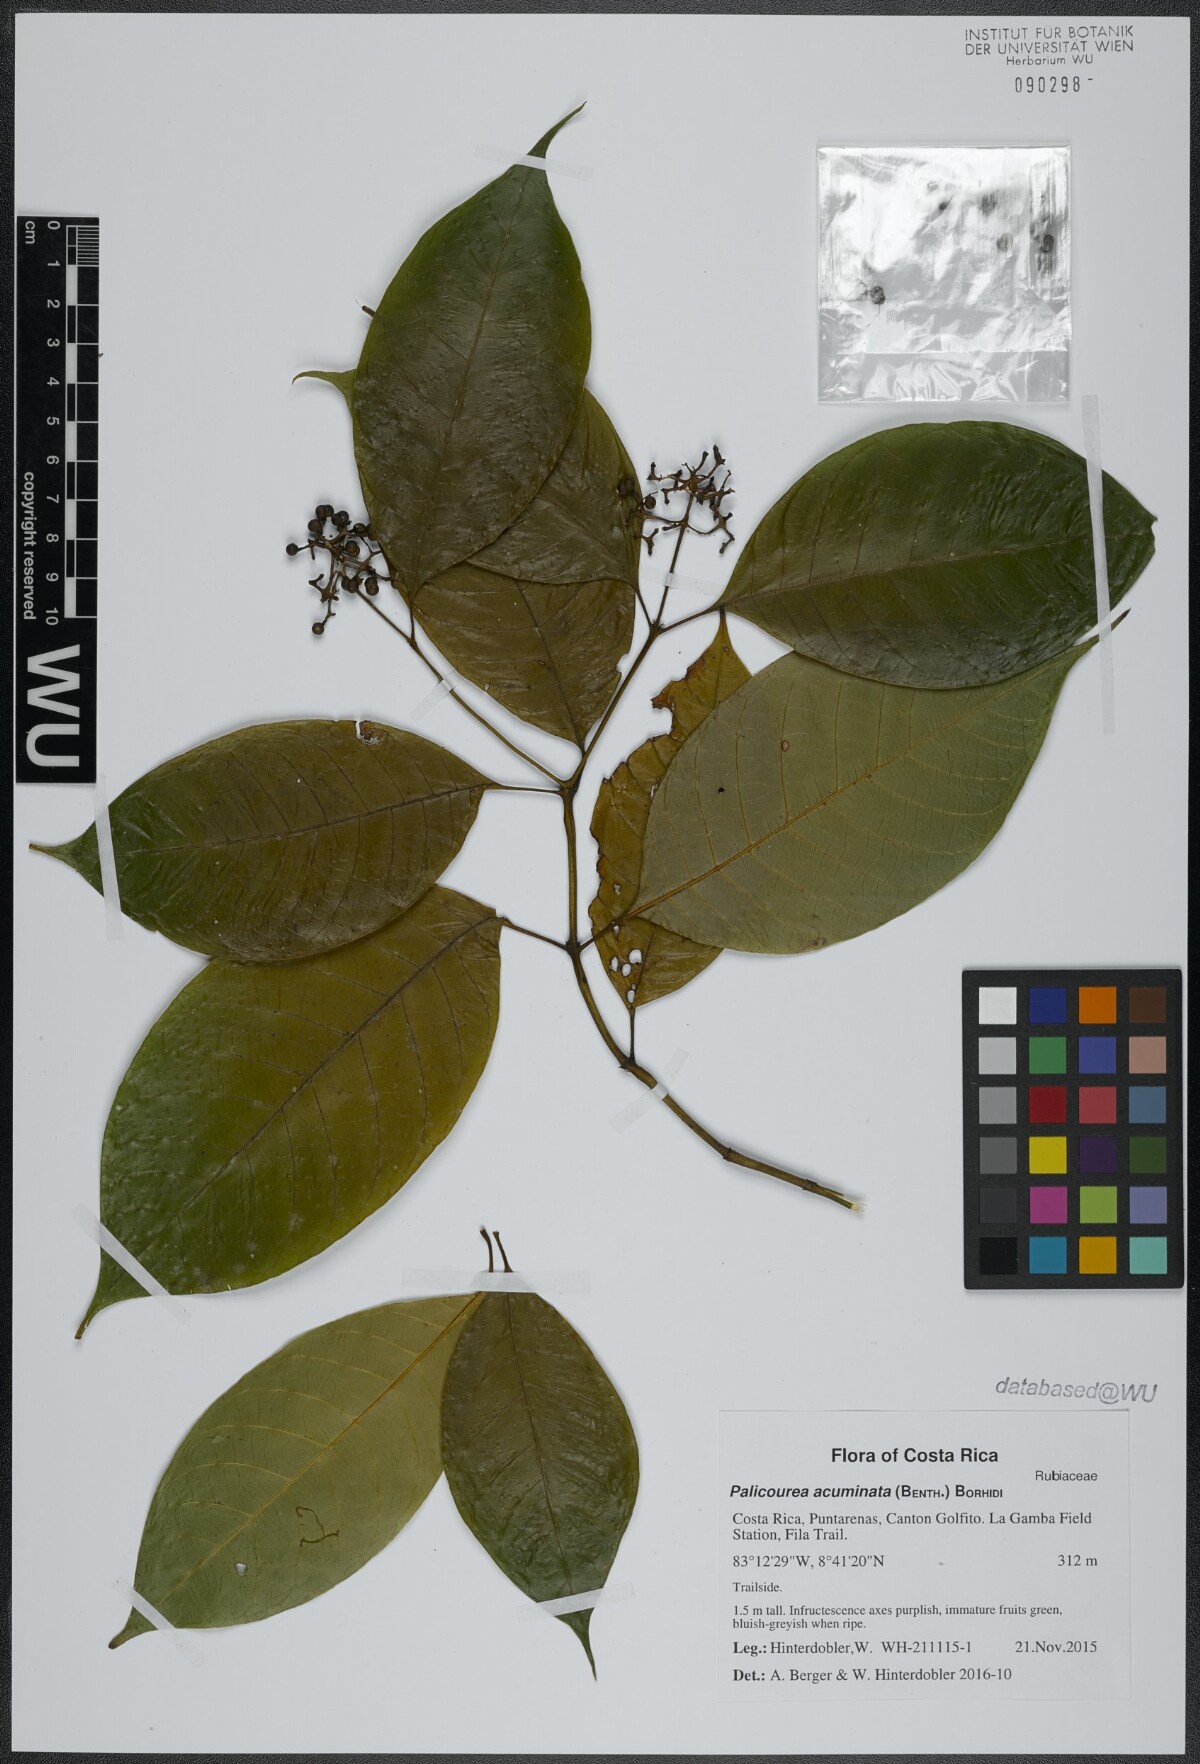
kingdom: Plantae
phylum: Tracheophyta
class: Magnoliopsida
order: Gentianales
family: Rubiaceae
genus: Palicourea
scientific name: Palicourea acuminata
